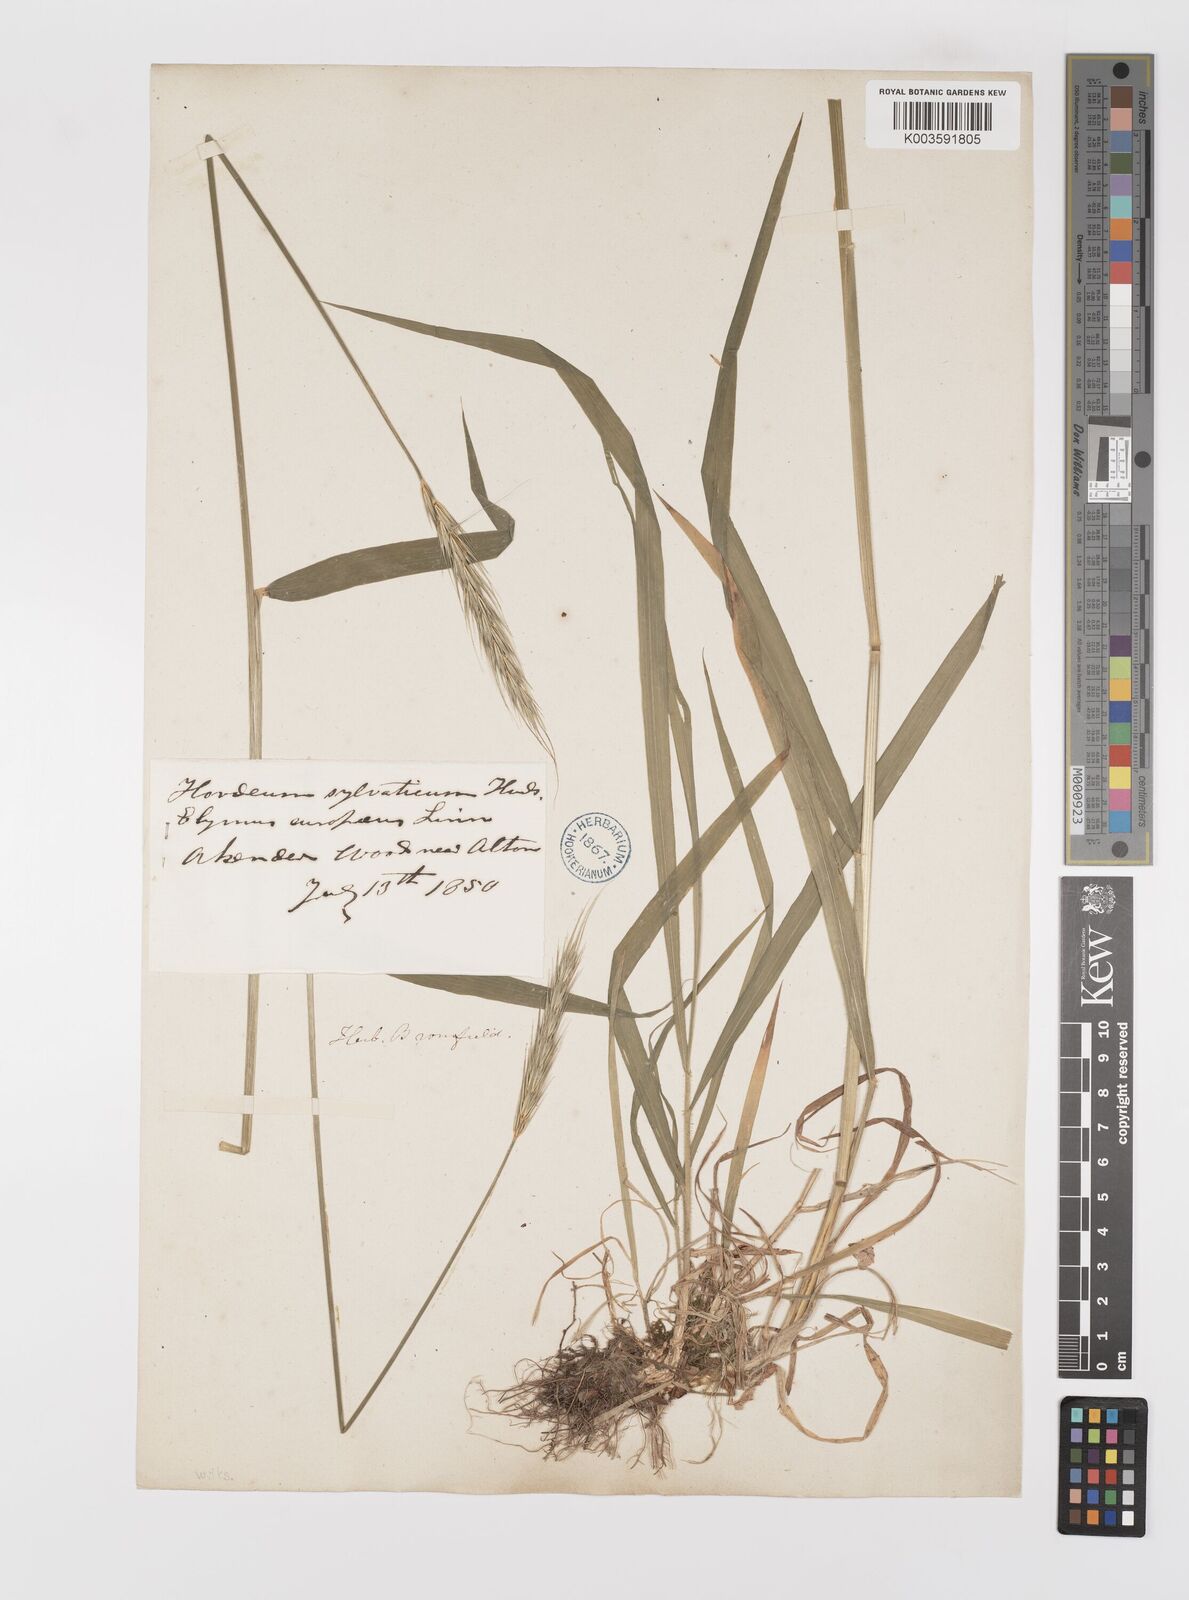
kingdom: Plantae
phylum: Tracheophyta
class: Liliopsida
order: Poales
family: Poaceae
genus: Hordelymus
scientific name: Hordelymus europaeus
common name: Wood-barley
